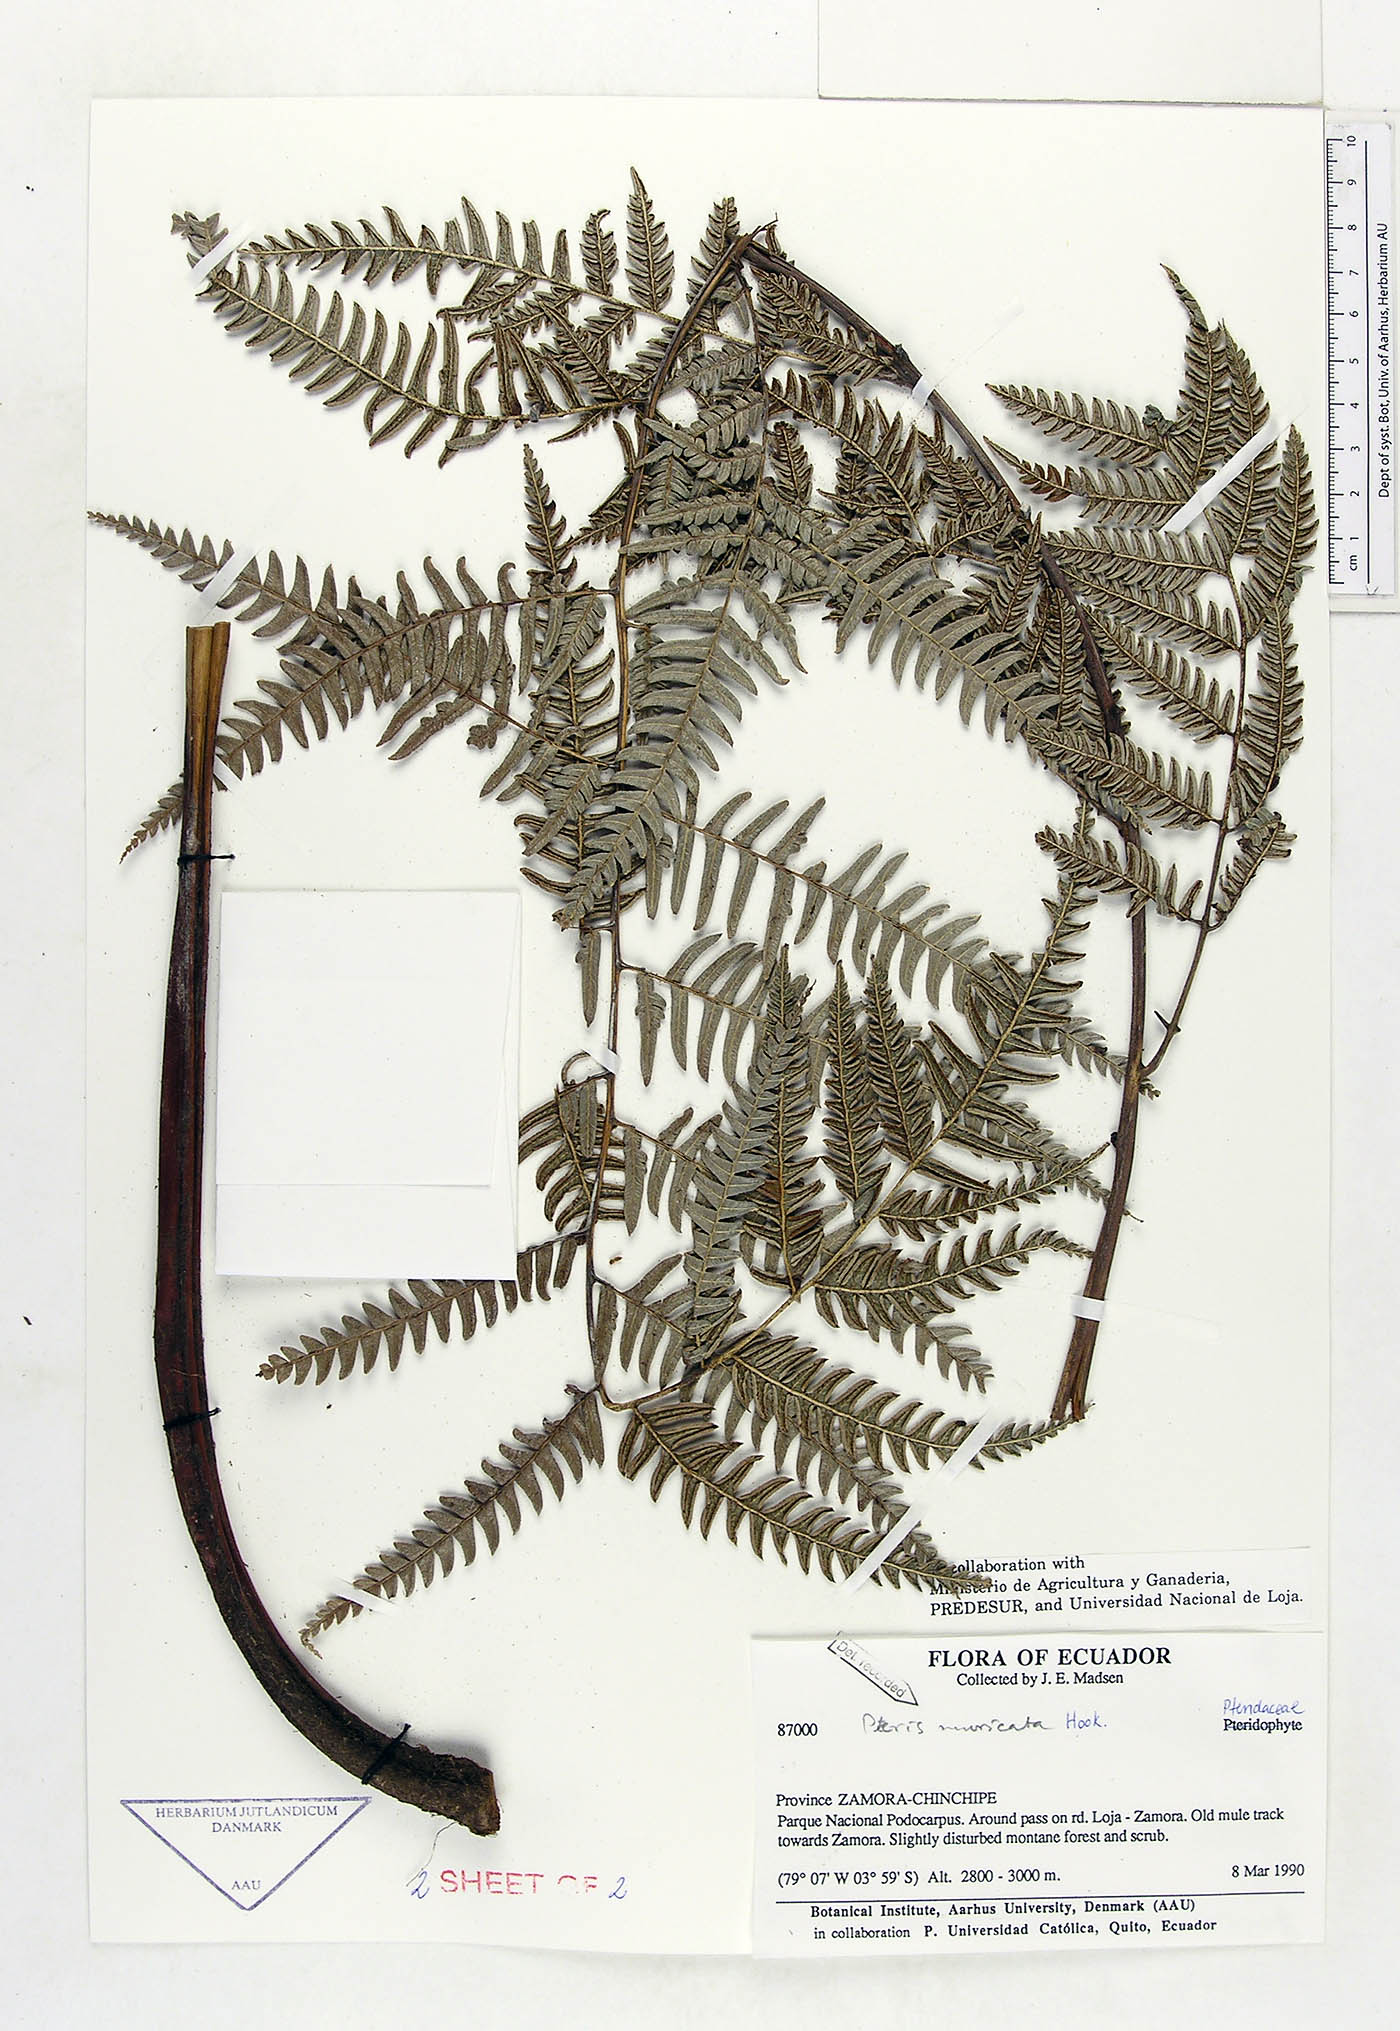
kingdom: Plantae
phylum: Tracheophyta
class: Polypodiopsida
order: Polypodiales
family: Pteridaceae
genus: Pteris
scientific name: Pteris muricata
